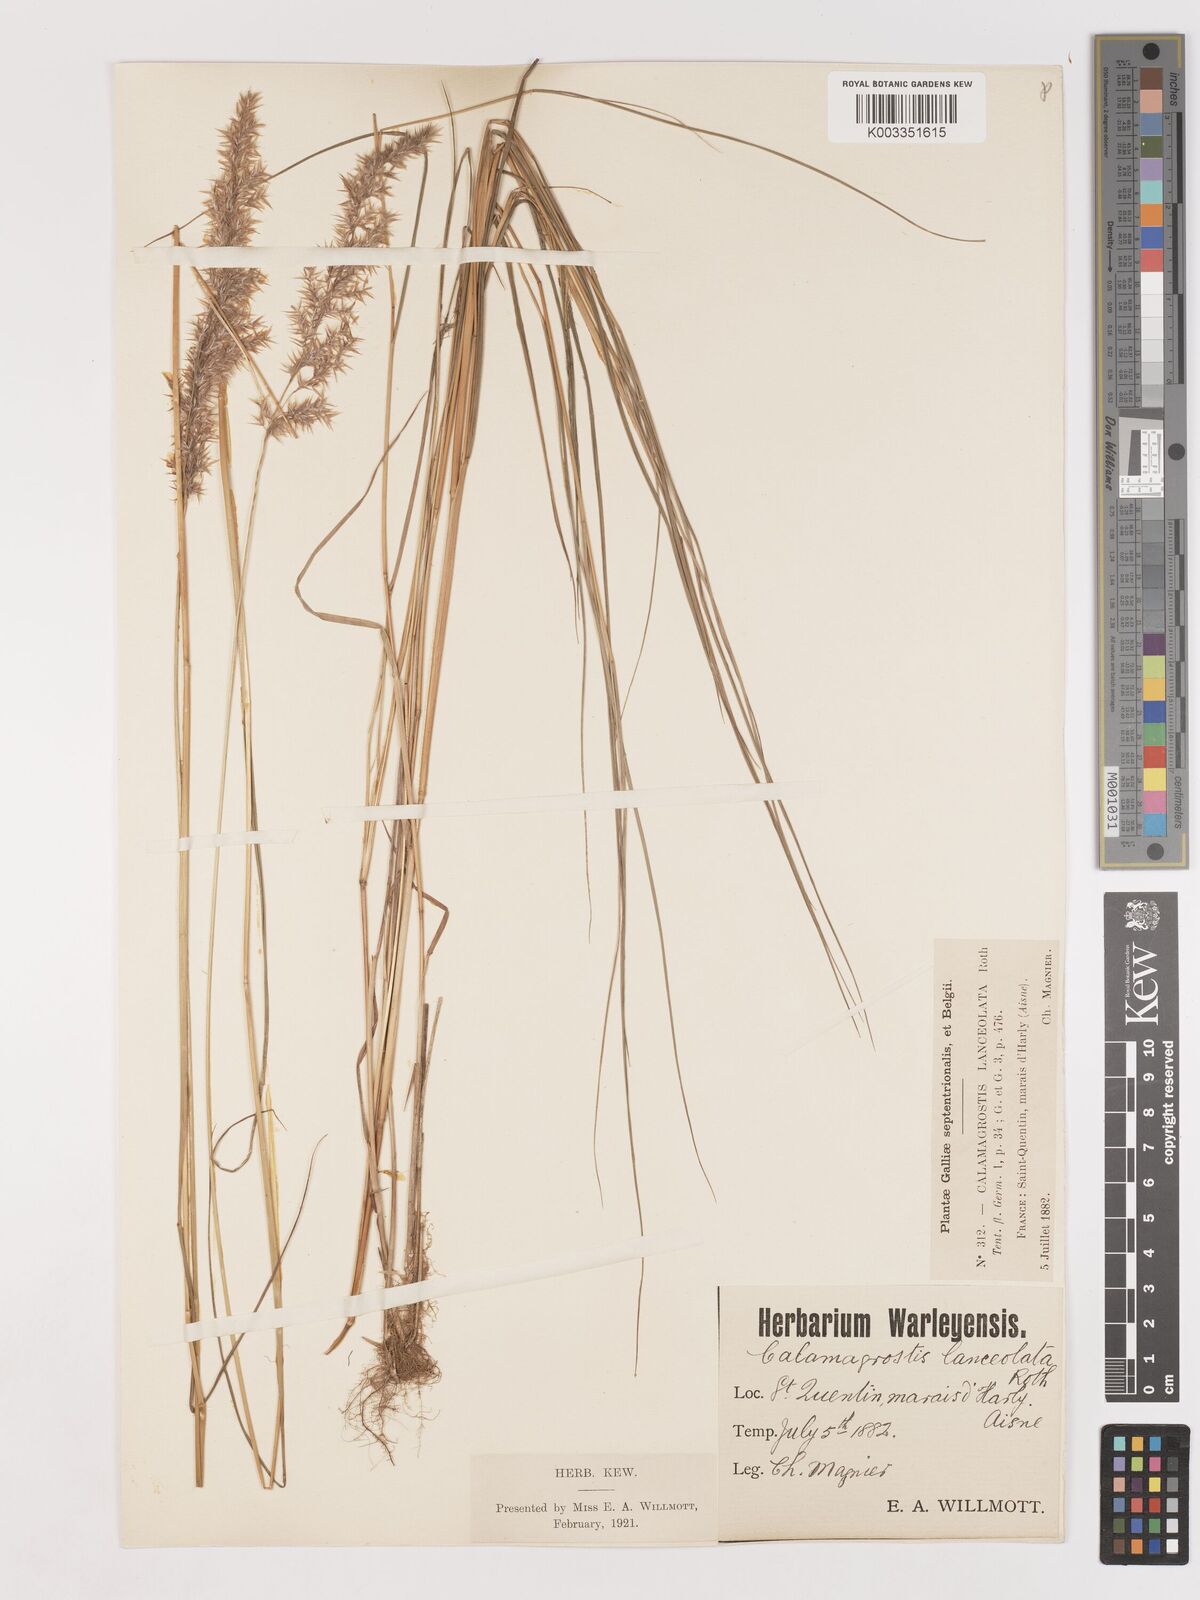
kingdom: Plantae
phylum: Tracheophyta
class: Liliopsida
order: Poales
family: Poaceae
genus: Calamagrostis
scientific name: Calamagrostis canescens
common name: Purple small-reed
